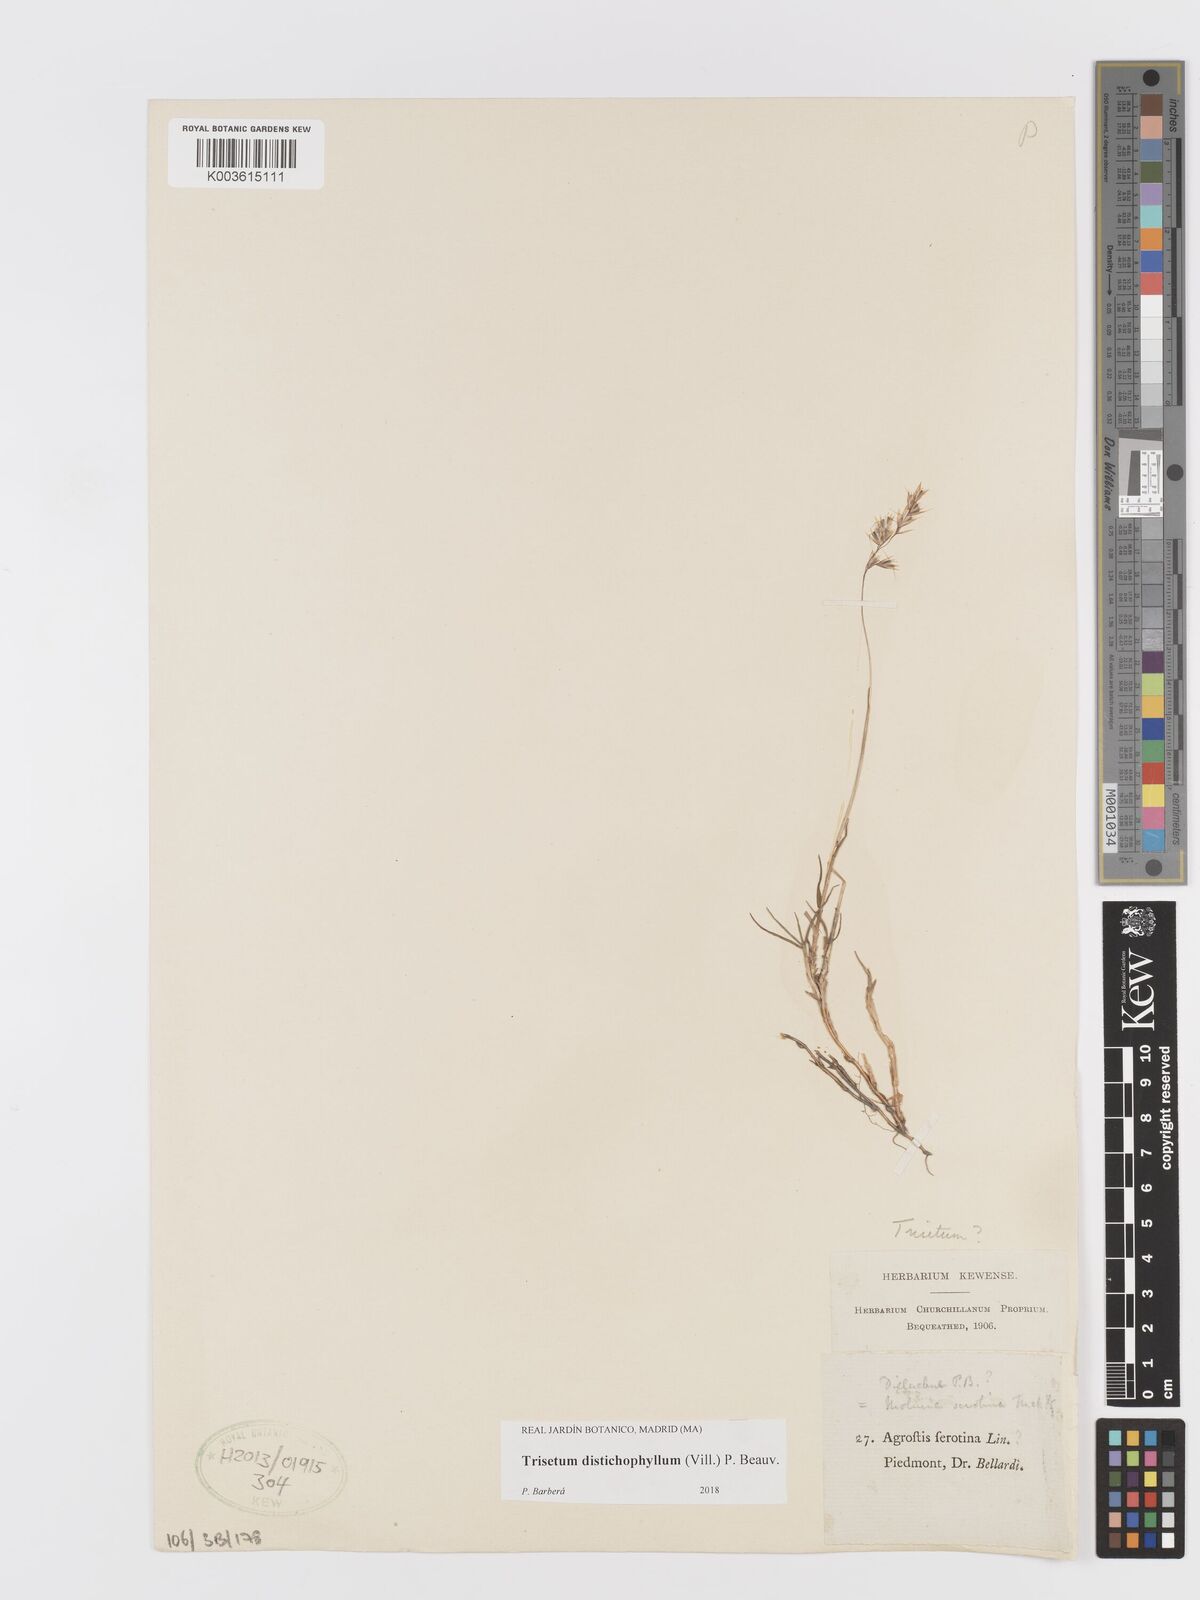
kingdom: Plantae
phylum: Tracheophyta
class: Liliopsida
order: Poales
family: Poaceae
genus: Acrospelion
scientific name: Acrospelion distichophyllum
